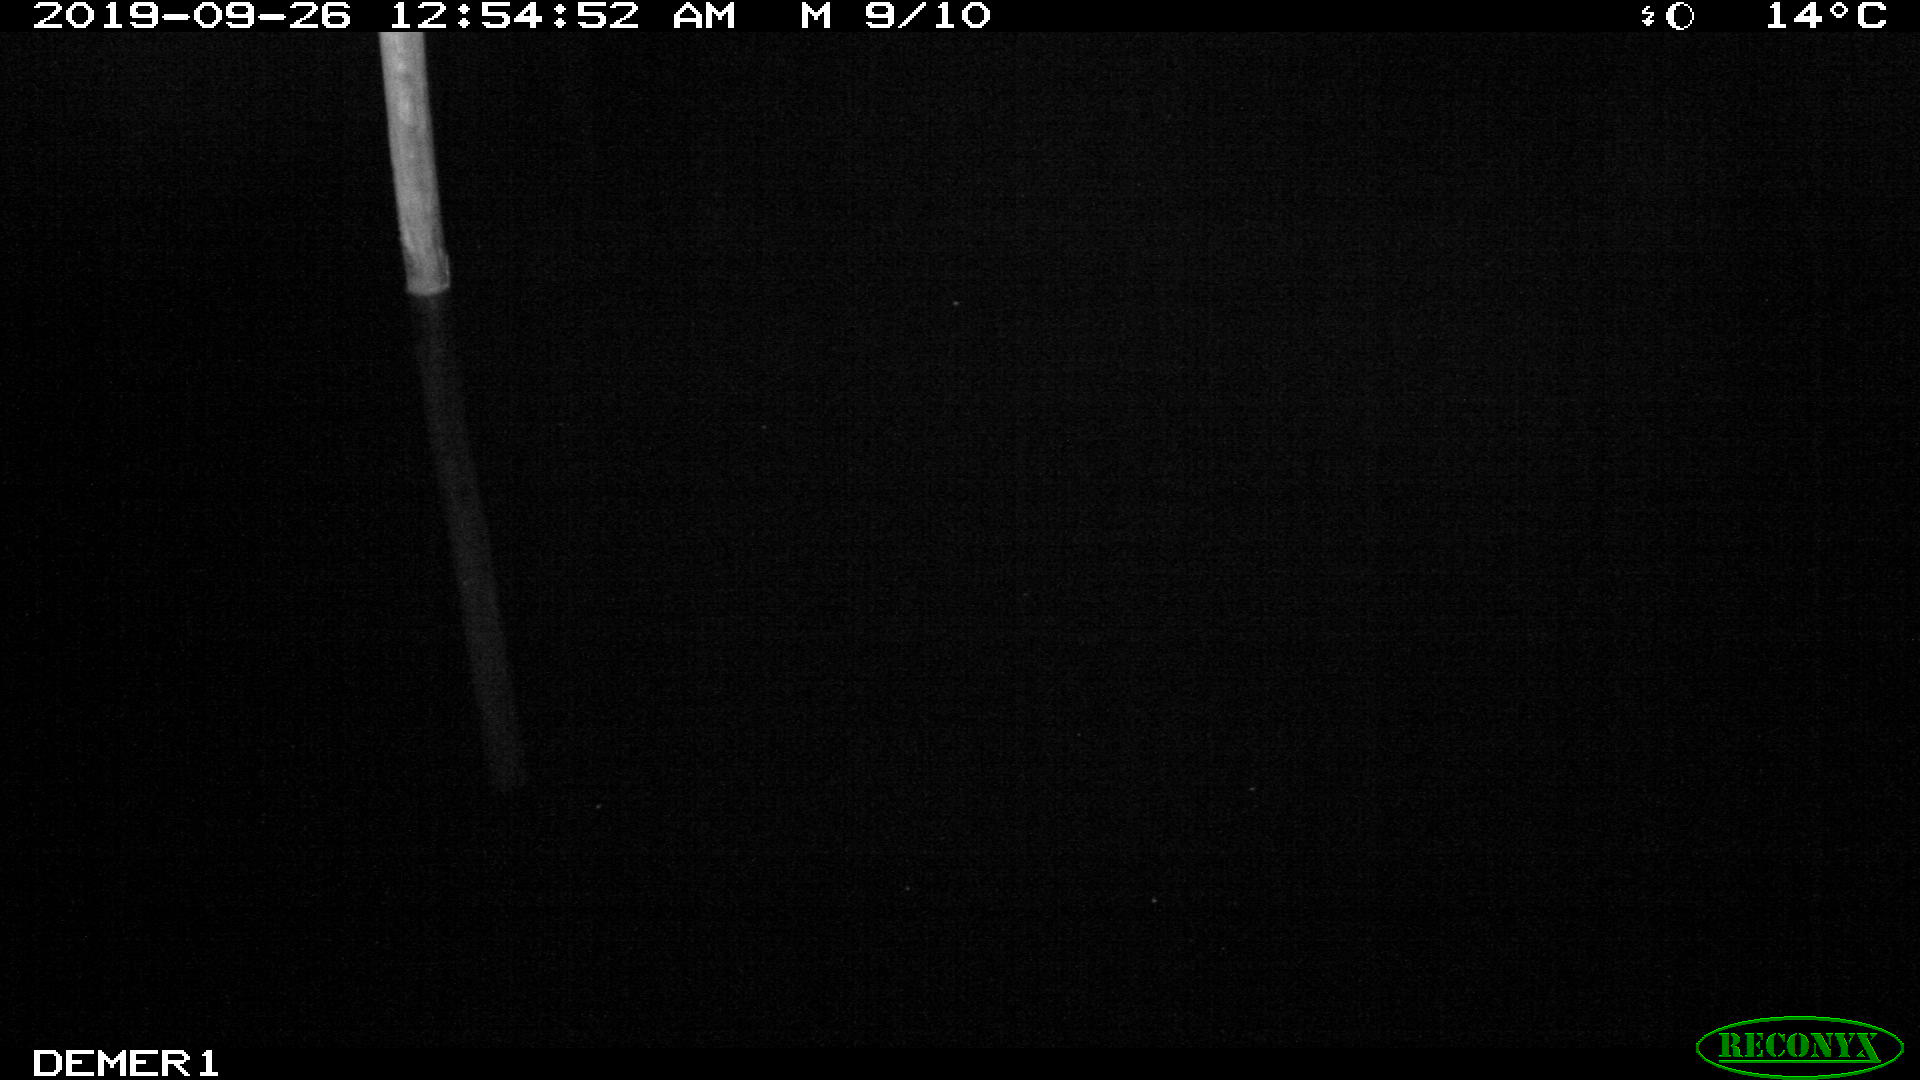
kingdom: Animalia
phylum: Chordata
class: Aves
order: Anseriformes
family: Anatidae
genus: Anas
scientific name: Anas platyrhynchos
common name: Mallard
